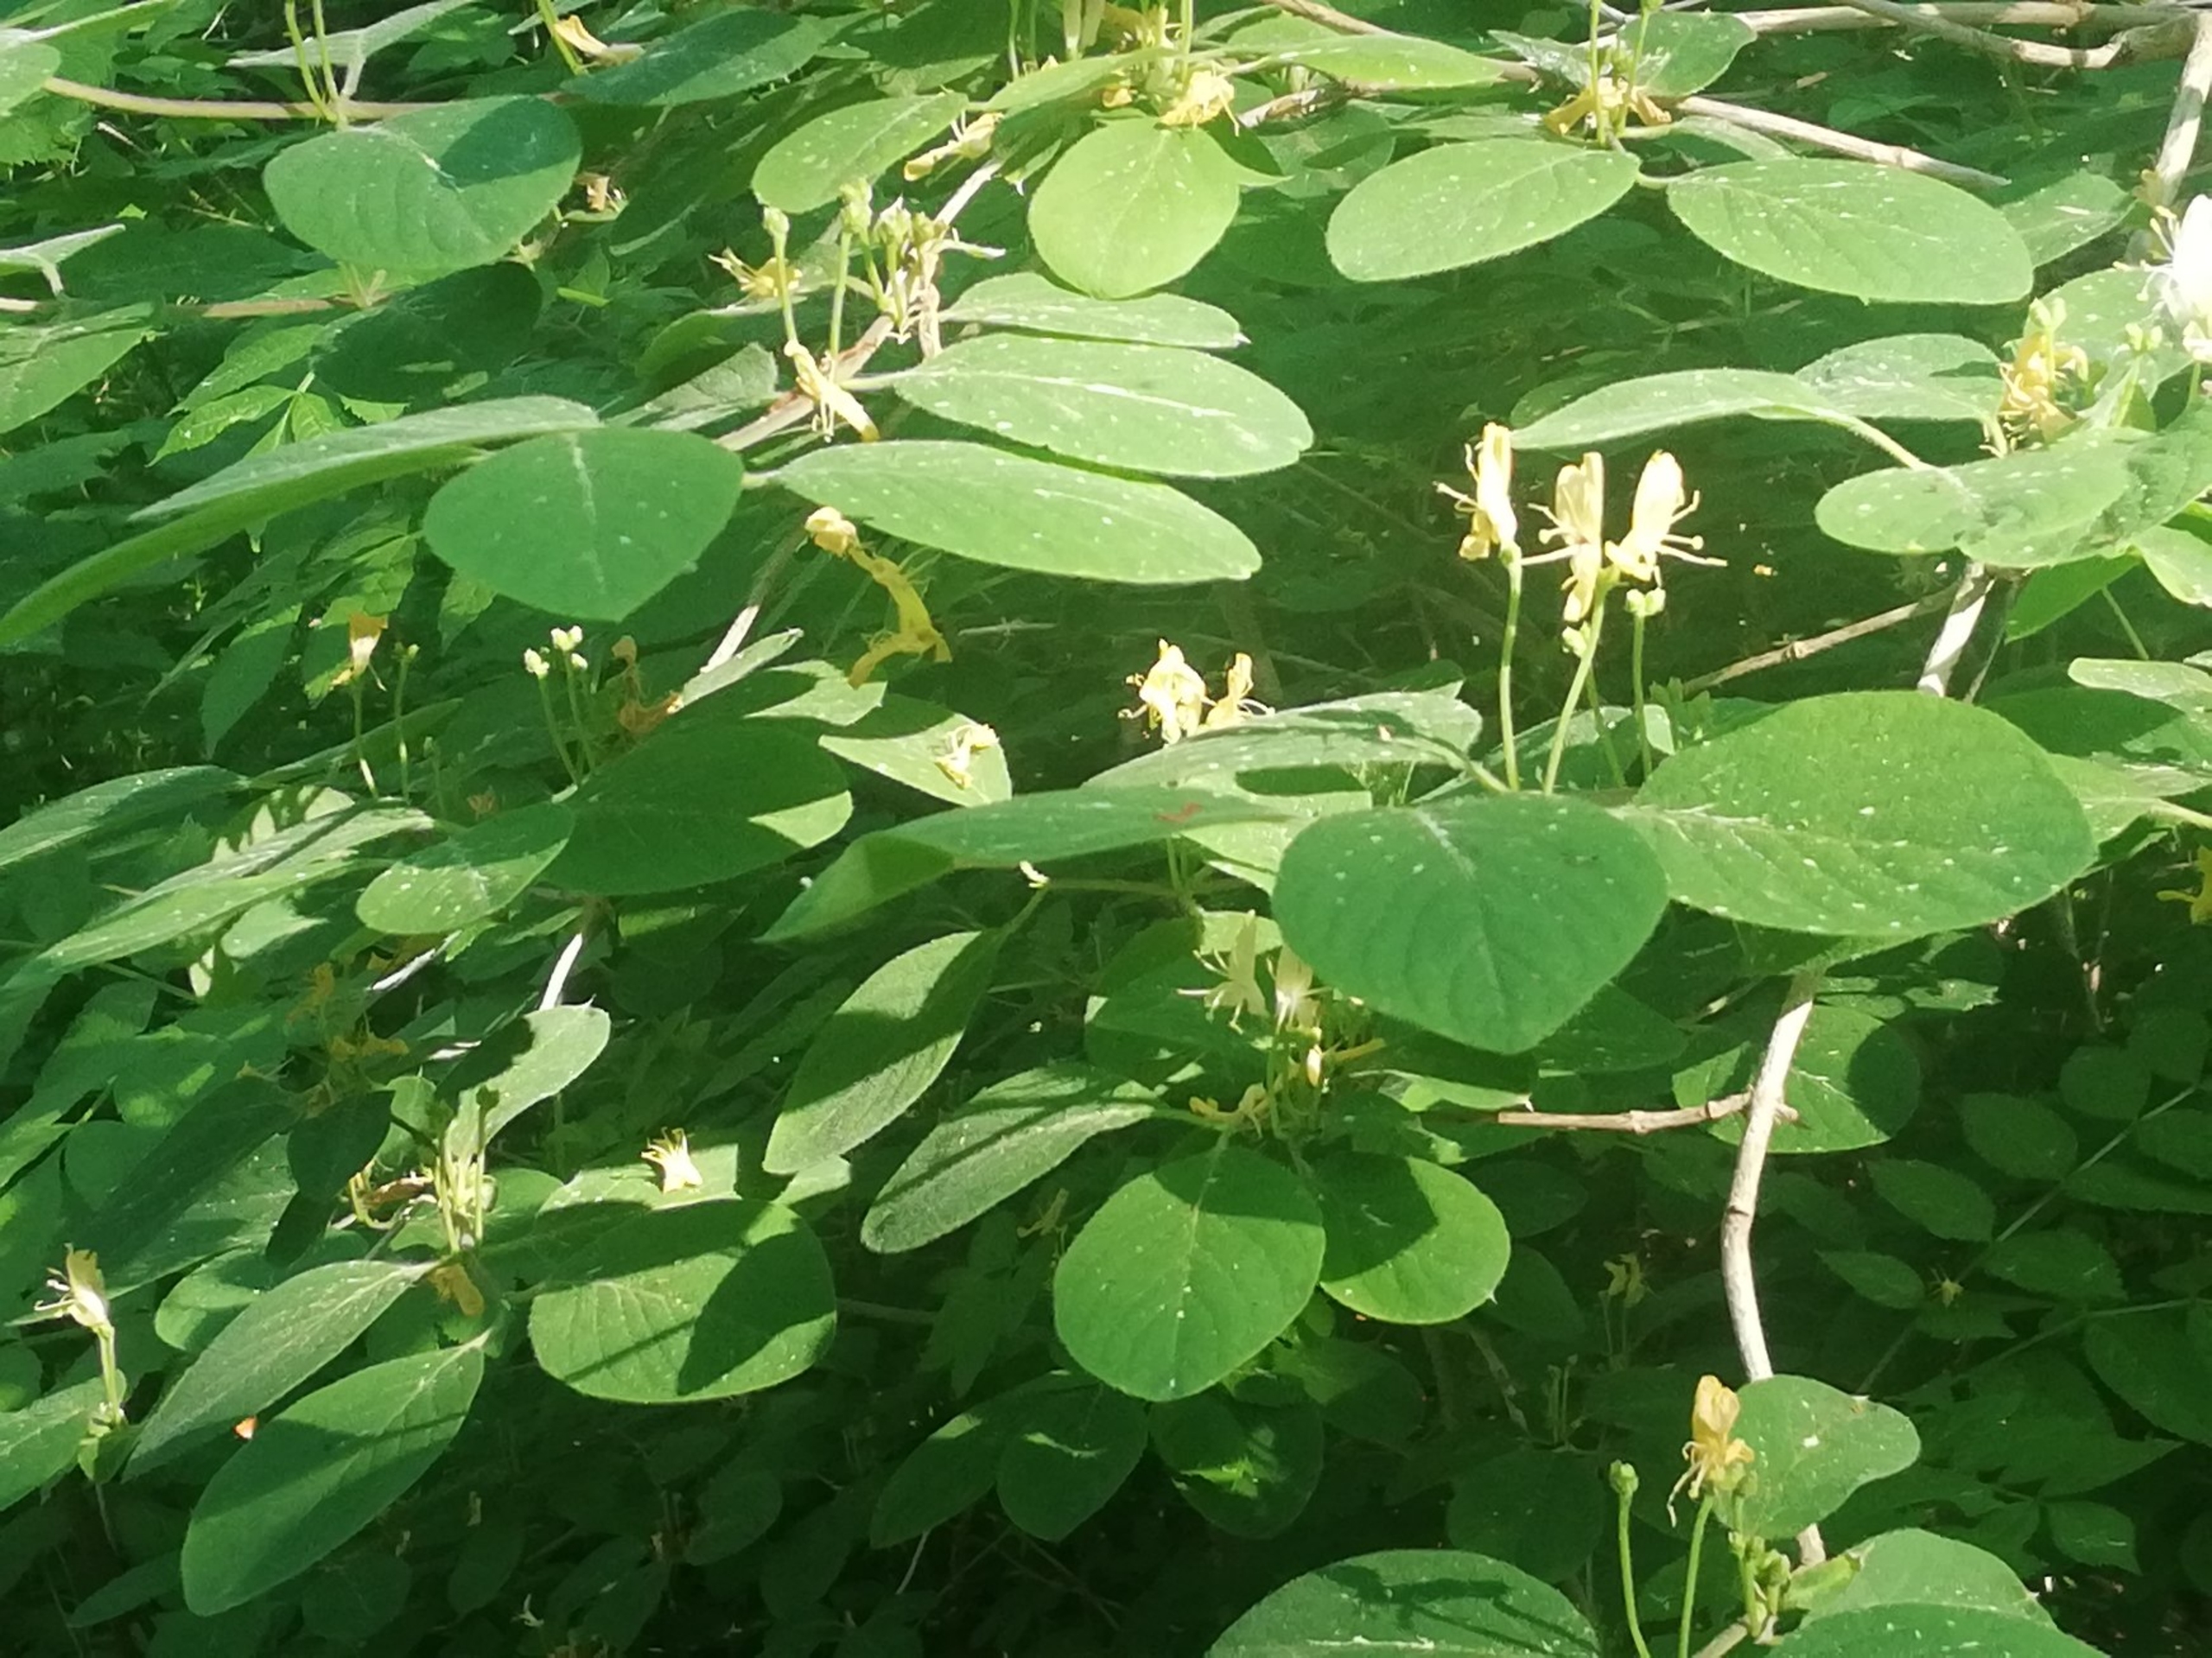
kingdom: Plantae
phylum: Tracheophyta
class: Magnoliopsida
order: Dipsacales
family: Caprifoliaceae
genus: Lonicera
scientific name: Lonicera xylosteum
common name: Dunet gedeblad
